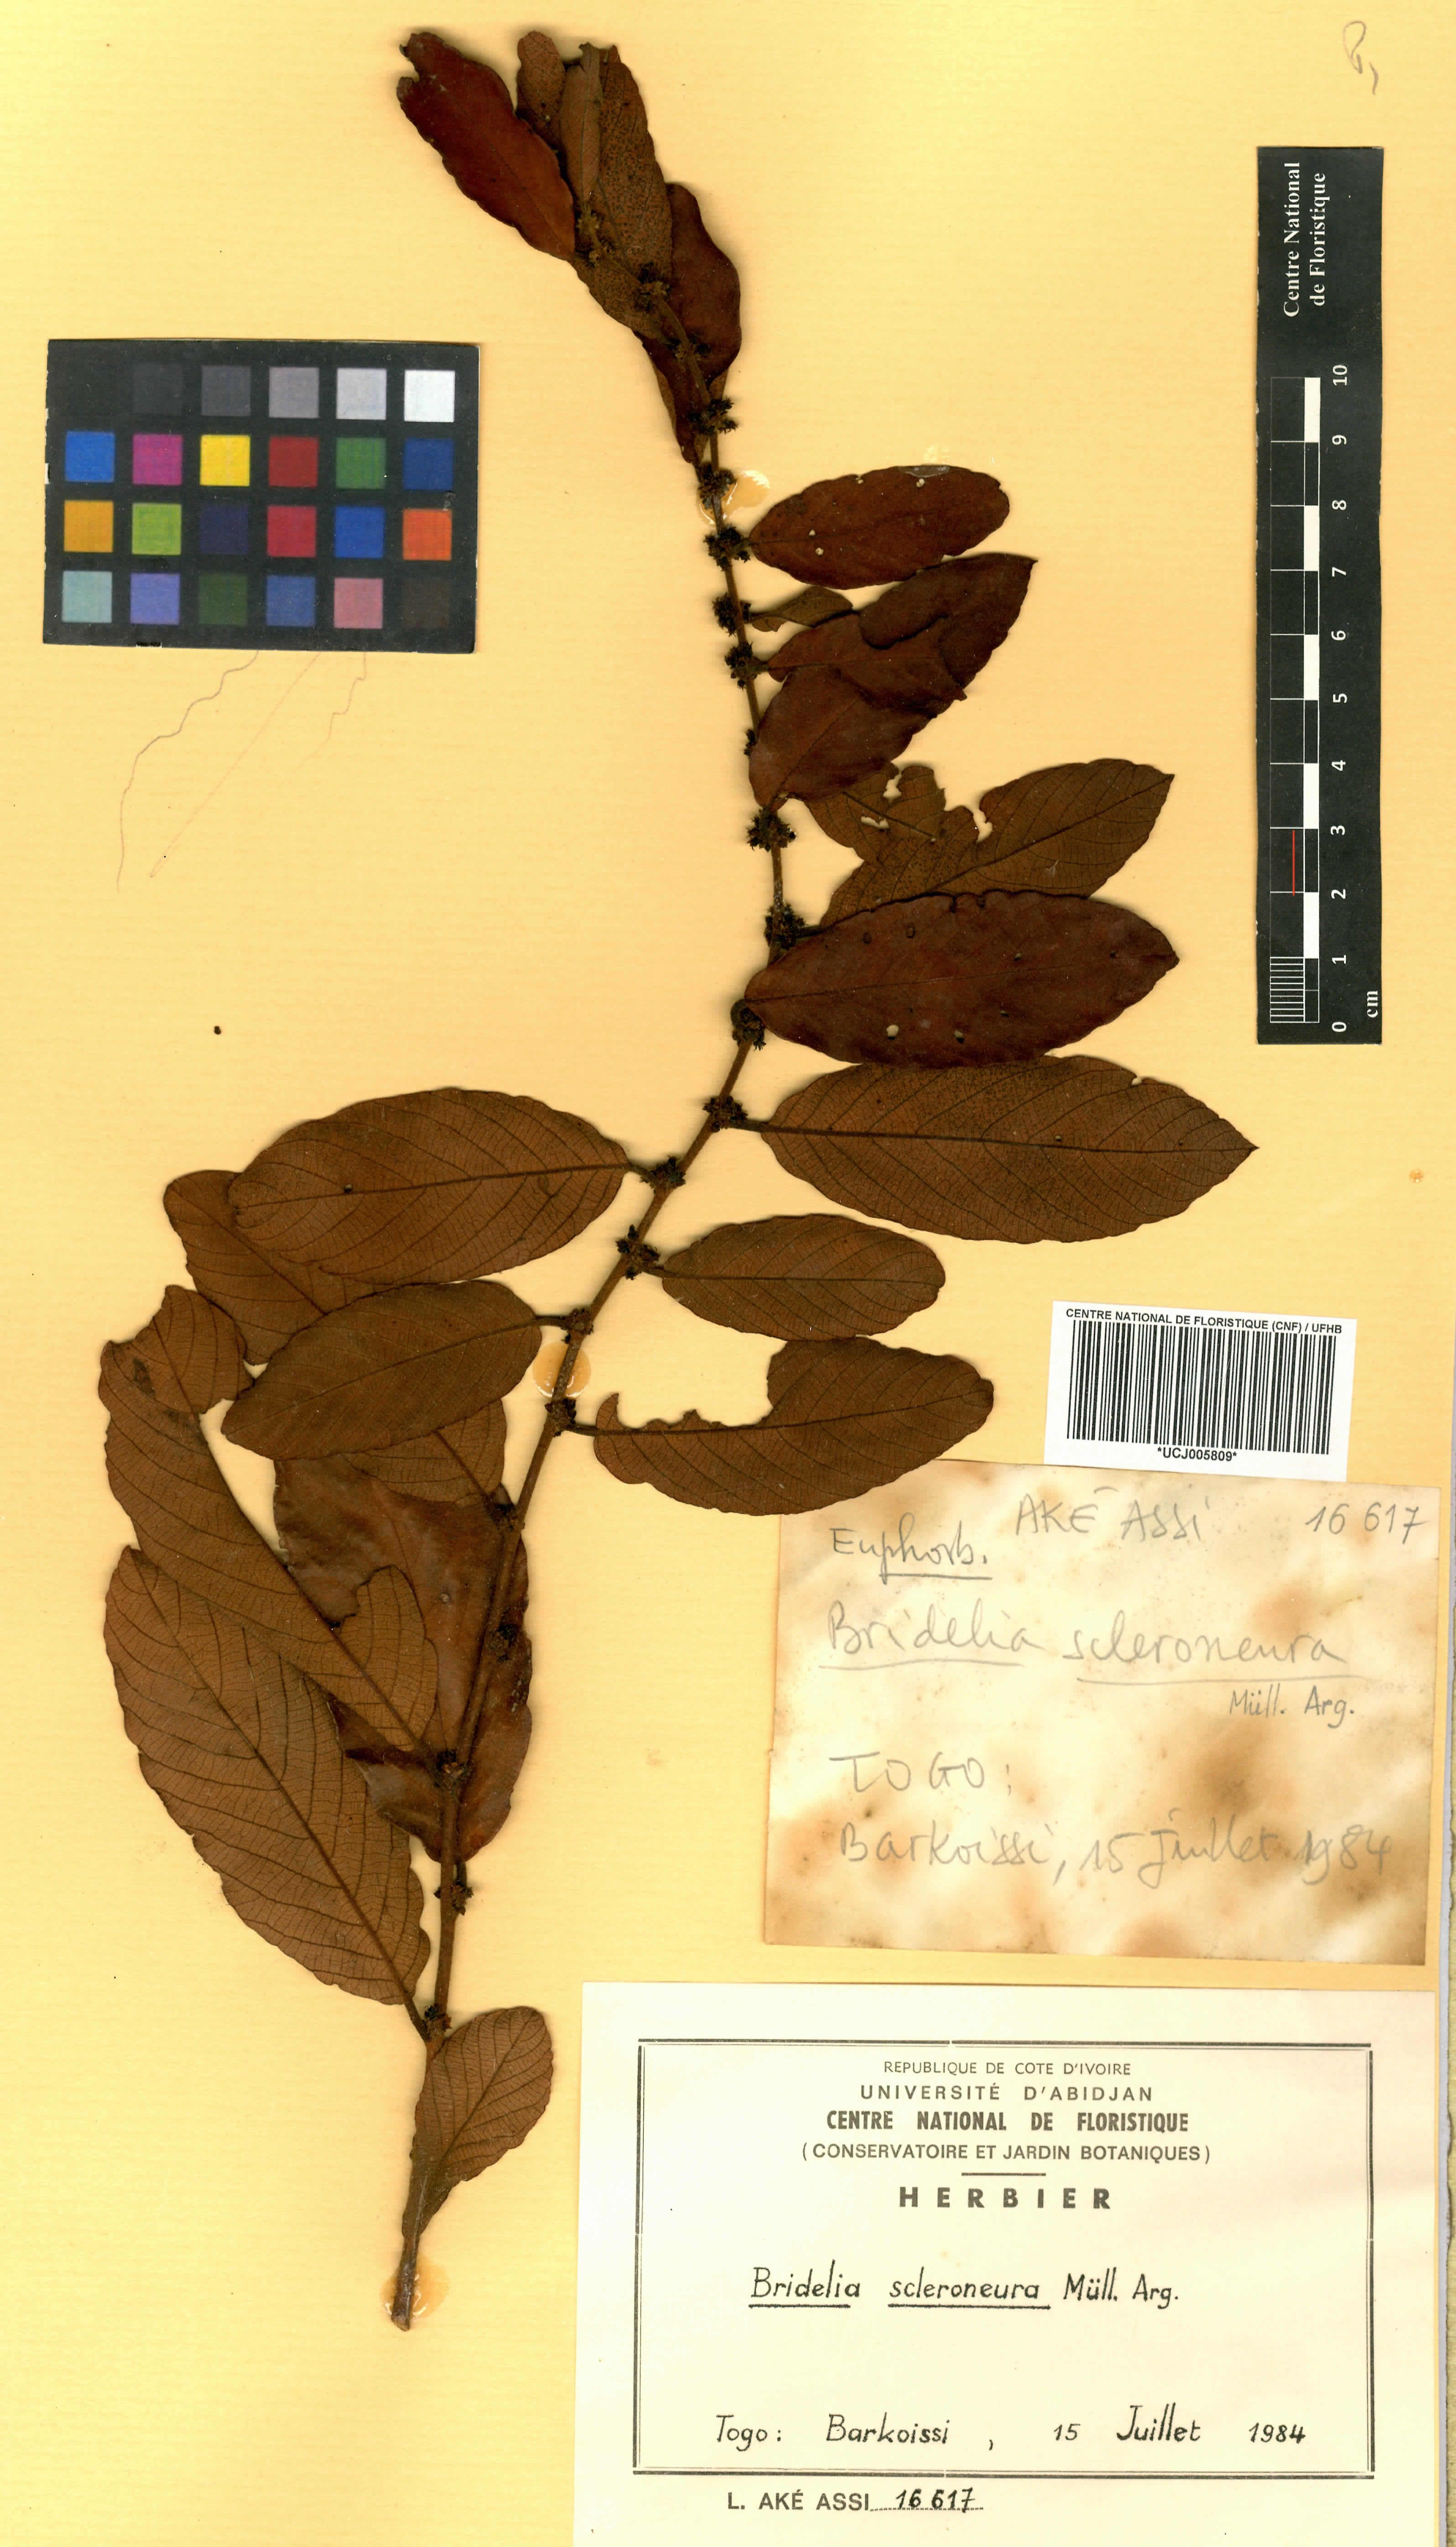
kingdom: Plantae
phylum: Tracheophyta
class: Magnoliopsida
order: Malpighiales
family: Phyllanthaceae
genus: Bridelia
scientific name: Bridelia scleroneura
